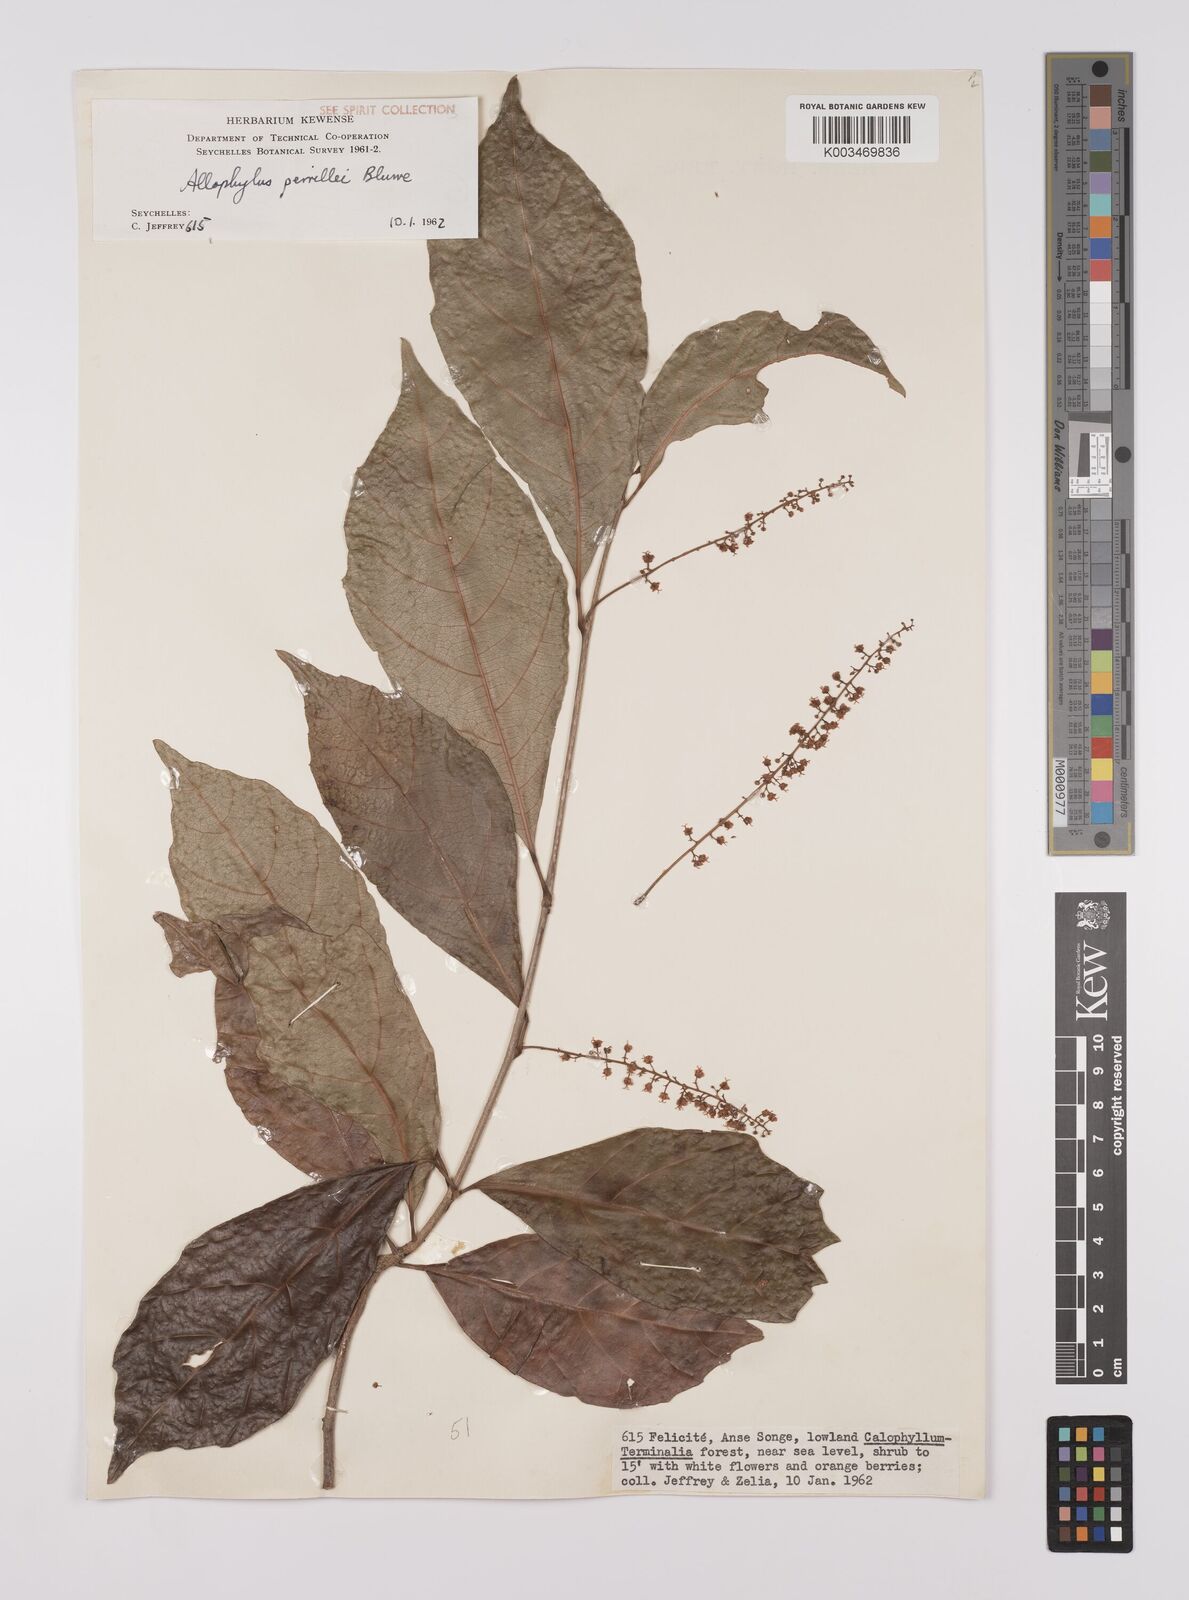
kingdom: Plantae
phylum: Tracheophyta
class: Magnoliopsida
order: Sapindales
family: Sapindaceae
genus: Allophylus
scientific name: Allophylus pervillei
